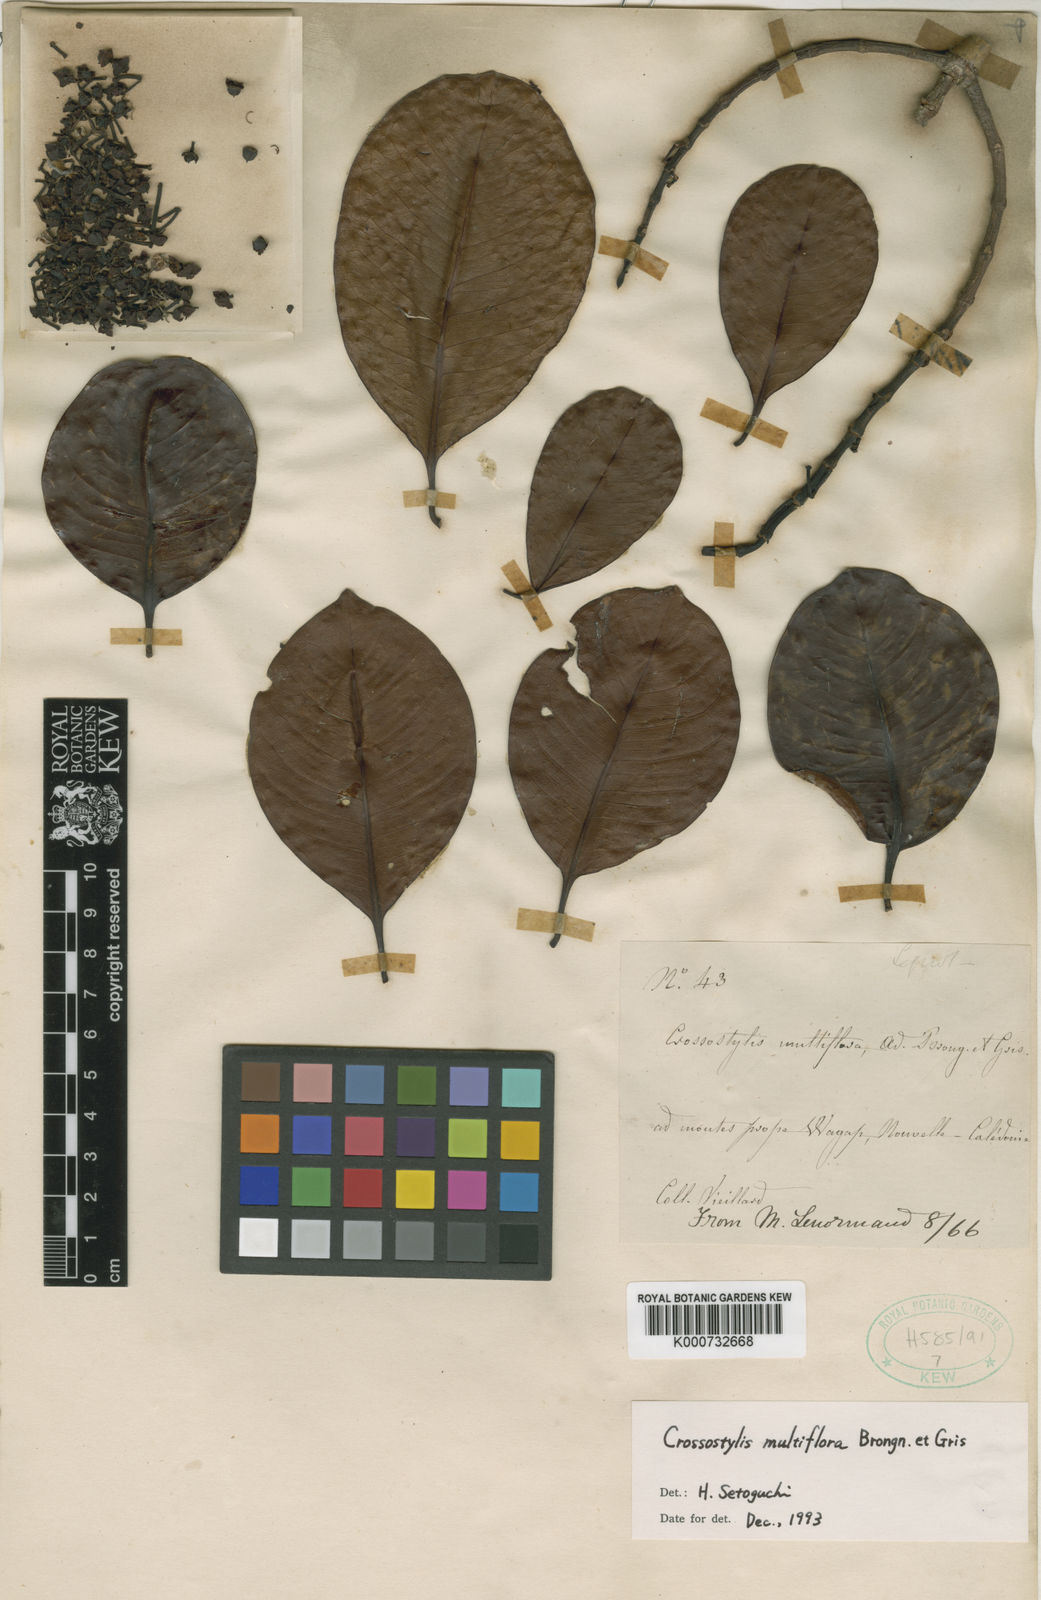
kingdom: Plantae
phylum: Tracheophyta
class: Magnoliopsida
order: Malpighiales
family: Rhizophoraceae
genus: Crossostylis
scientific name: Crossostylis
